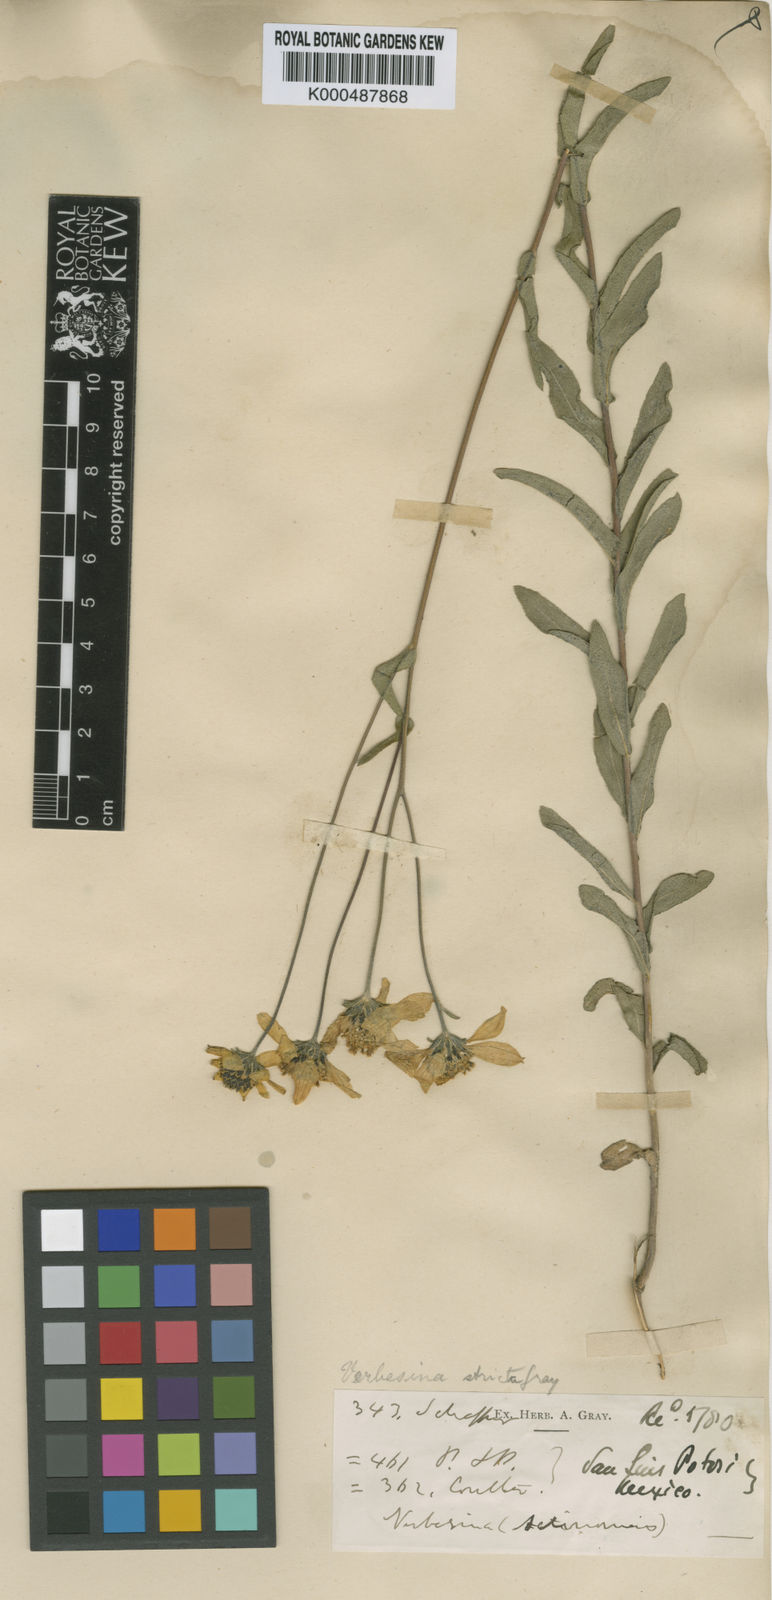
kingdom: Plantae
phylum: Tracheophyta
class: Magnoliopsida
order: Asterales
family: Asteraceae
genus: Verbesina
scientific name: Verbesina parviflora
